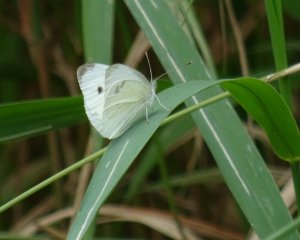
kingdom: Animalia
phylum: Arthropoda
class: Insecta
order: Lepidoptera
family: Pieridae
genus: Pieris
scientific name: Pieris rapae
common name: Cabbage White
